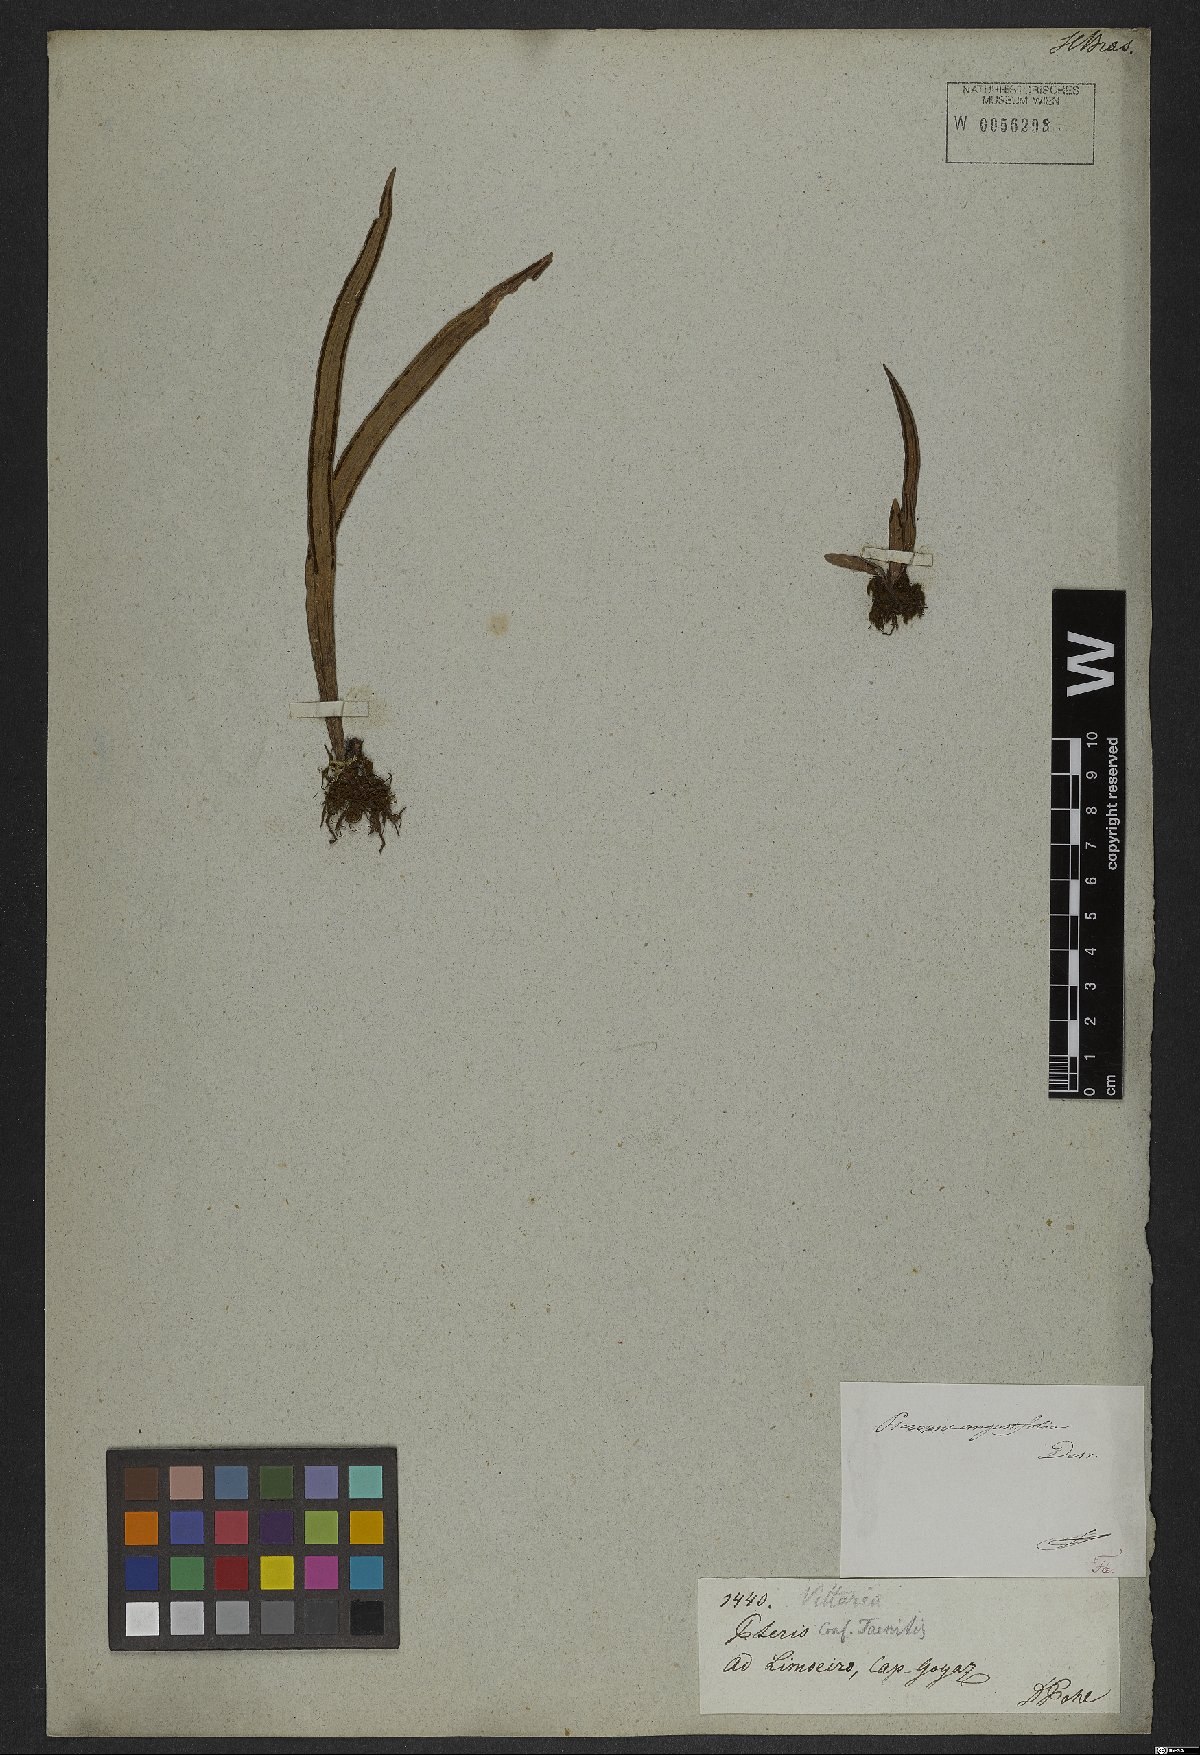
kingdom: Plantae
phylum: Tracheophyta
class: Polypodiopsida
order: Polypodiales
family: Pteridaceae
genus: Ananthacorus
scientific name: Ananthacorus angustifolius
